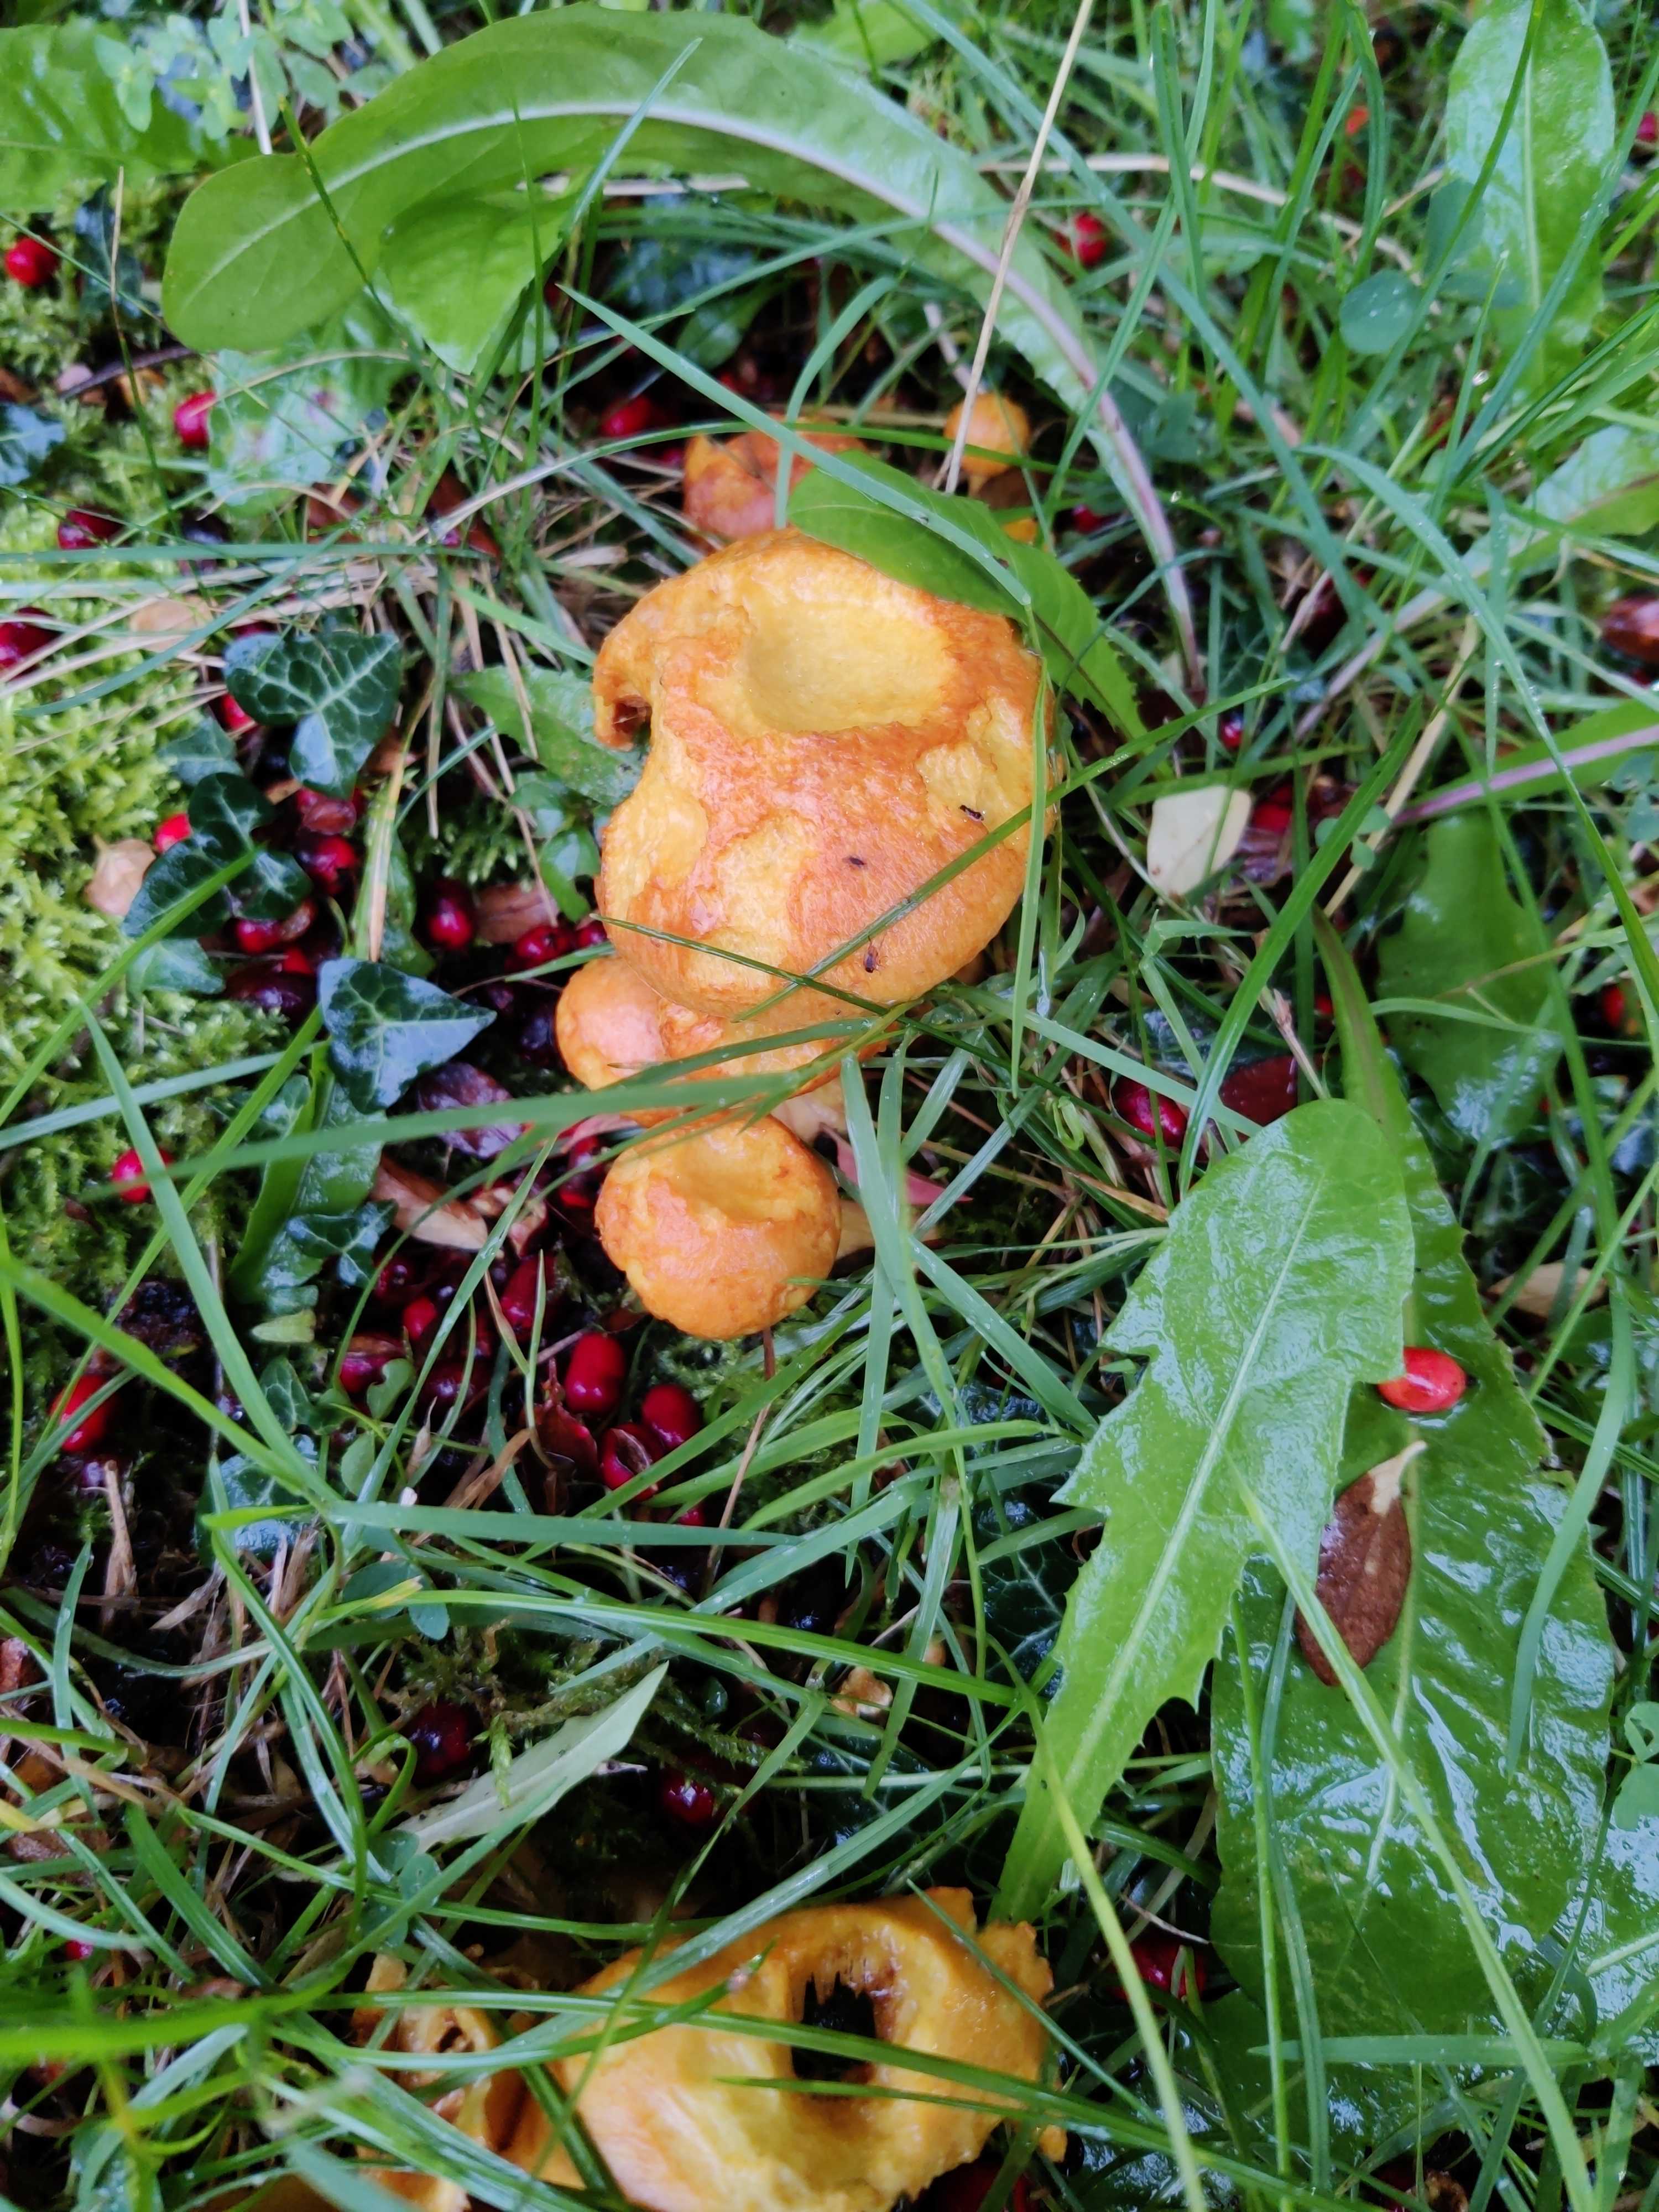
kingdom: Fungi
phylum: Basidiomycota
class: Agaricomycetes
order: Agaricales
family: Hymenogastraceae
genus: Gymnopilus
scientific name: Gymnopilus spectabilis
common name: fibret flammehat
